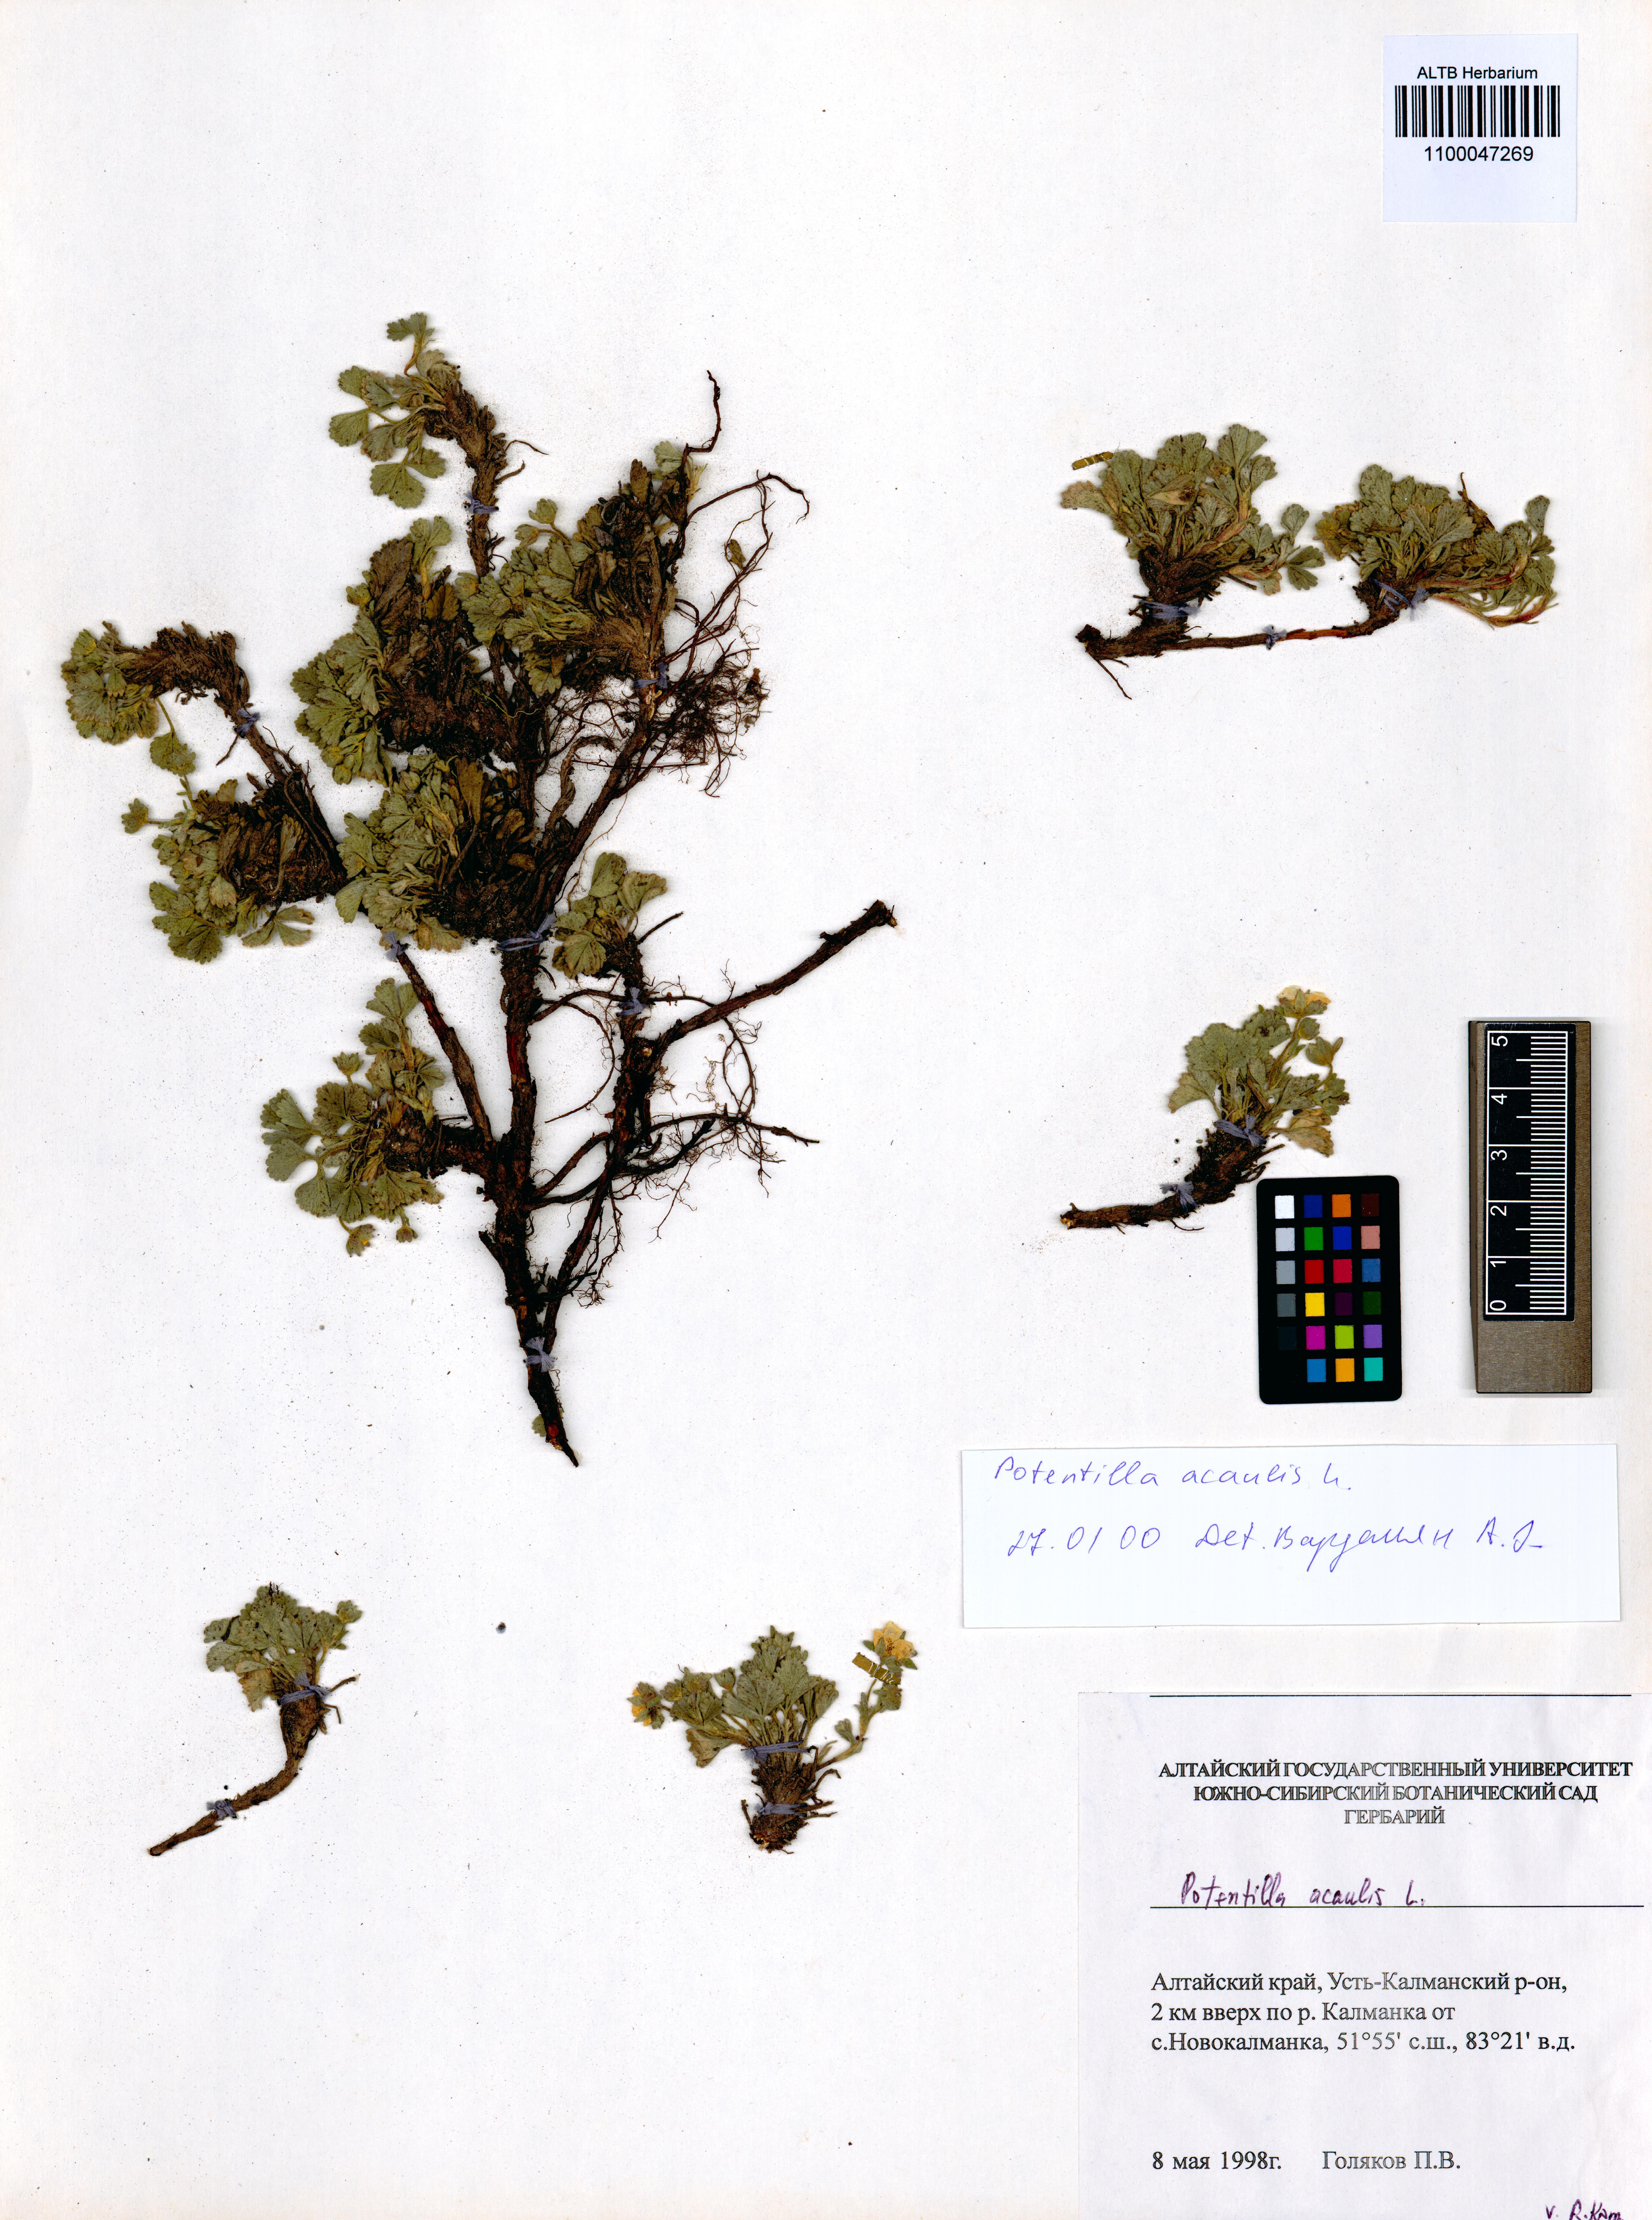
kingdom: Plantae
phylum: Tracheophyta
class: Magnoliopsida
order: Rosales
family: Rosaceae
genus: Potentilla
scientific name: Potentilla acaulis
